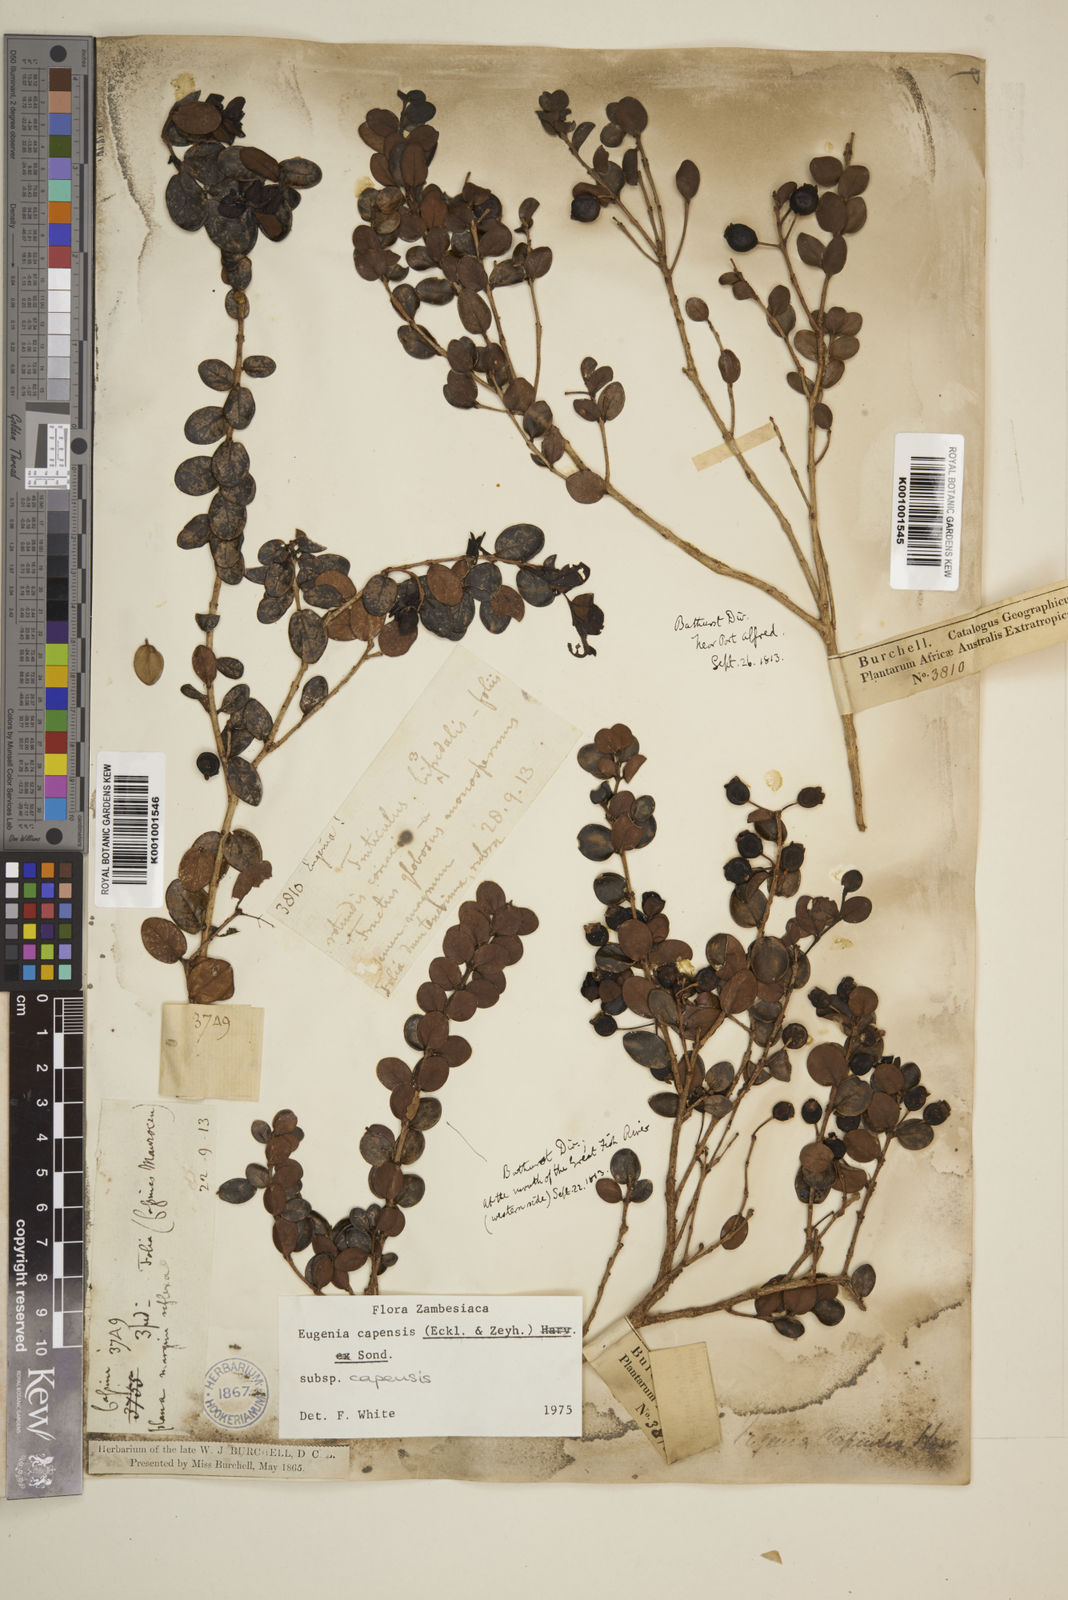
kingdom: Plantae
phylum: Tracheophyta
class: Magnoliopsida
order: Myrtales
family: Myrtaceae
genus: Eugenia
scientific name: Eugenia capensis
